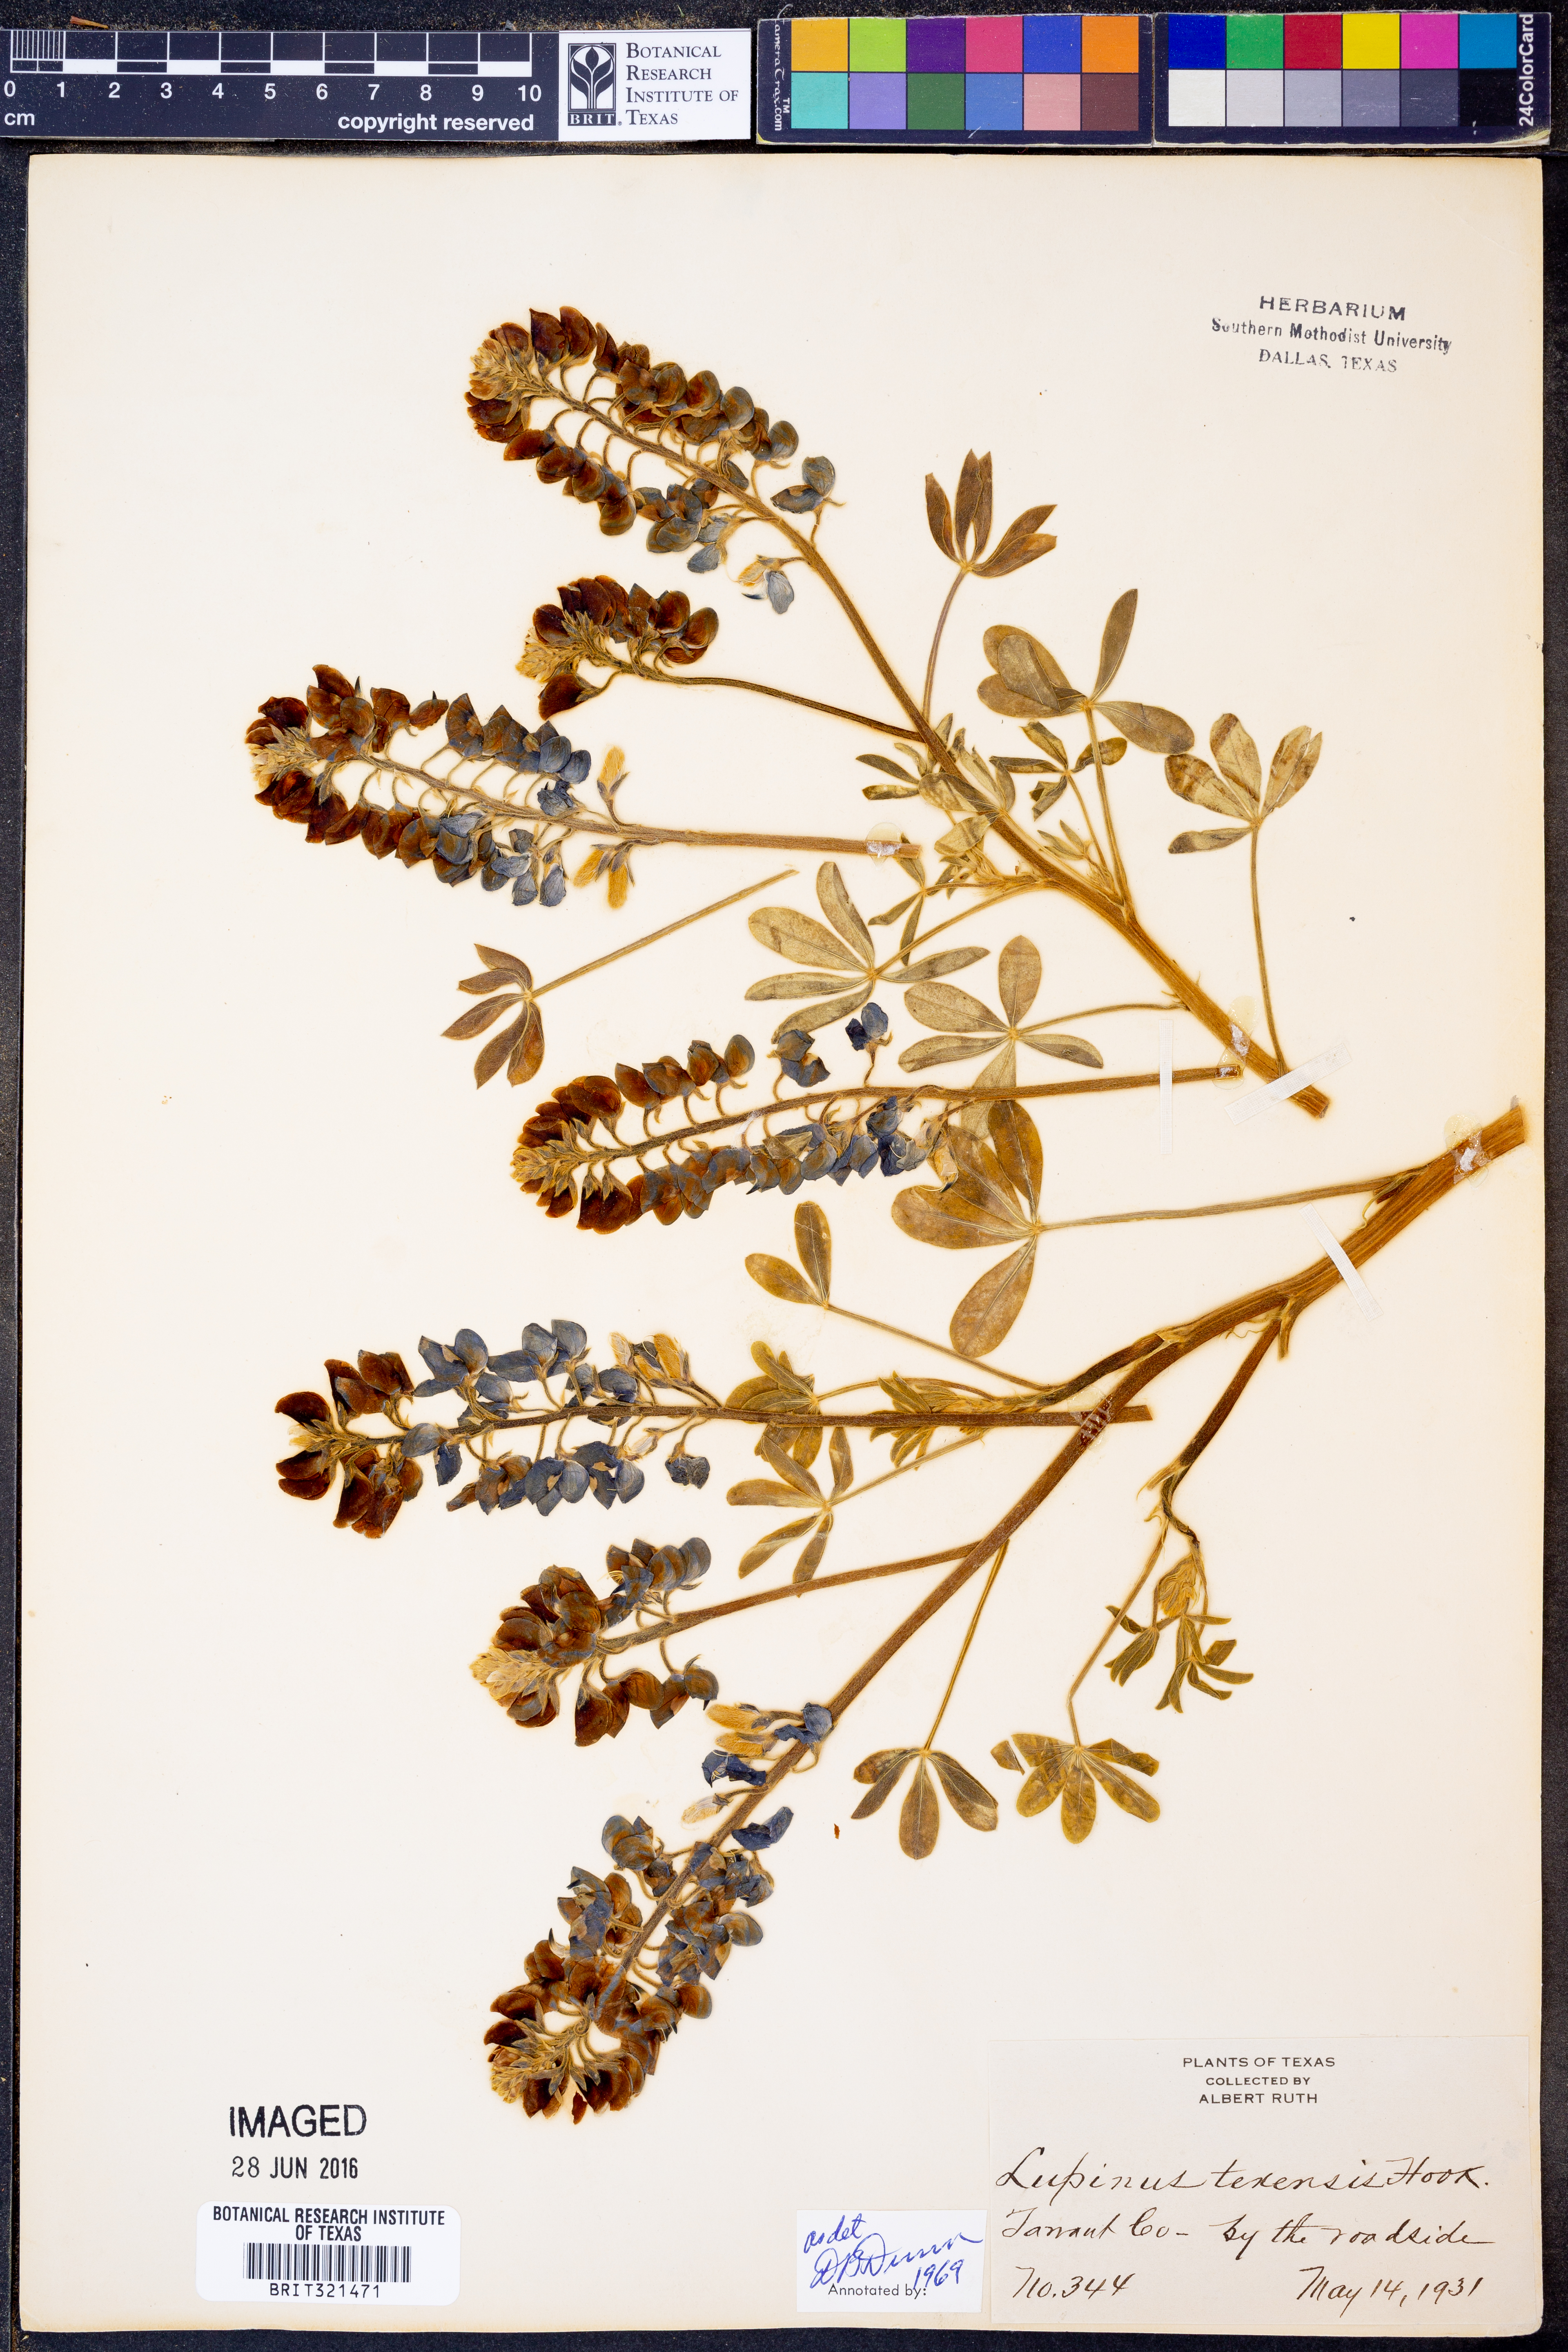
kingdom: Plantae
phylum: Tracheophyta
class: Magnoliopsida
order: Fabales
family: Fabaceae
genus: Lupinus
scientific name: Lupinus texensis
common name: Texas bluebonnet
